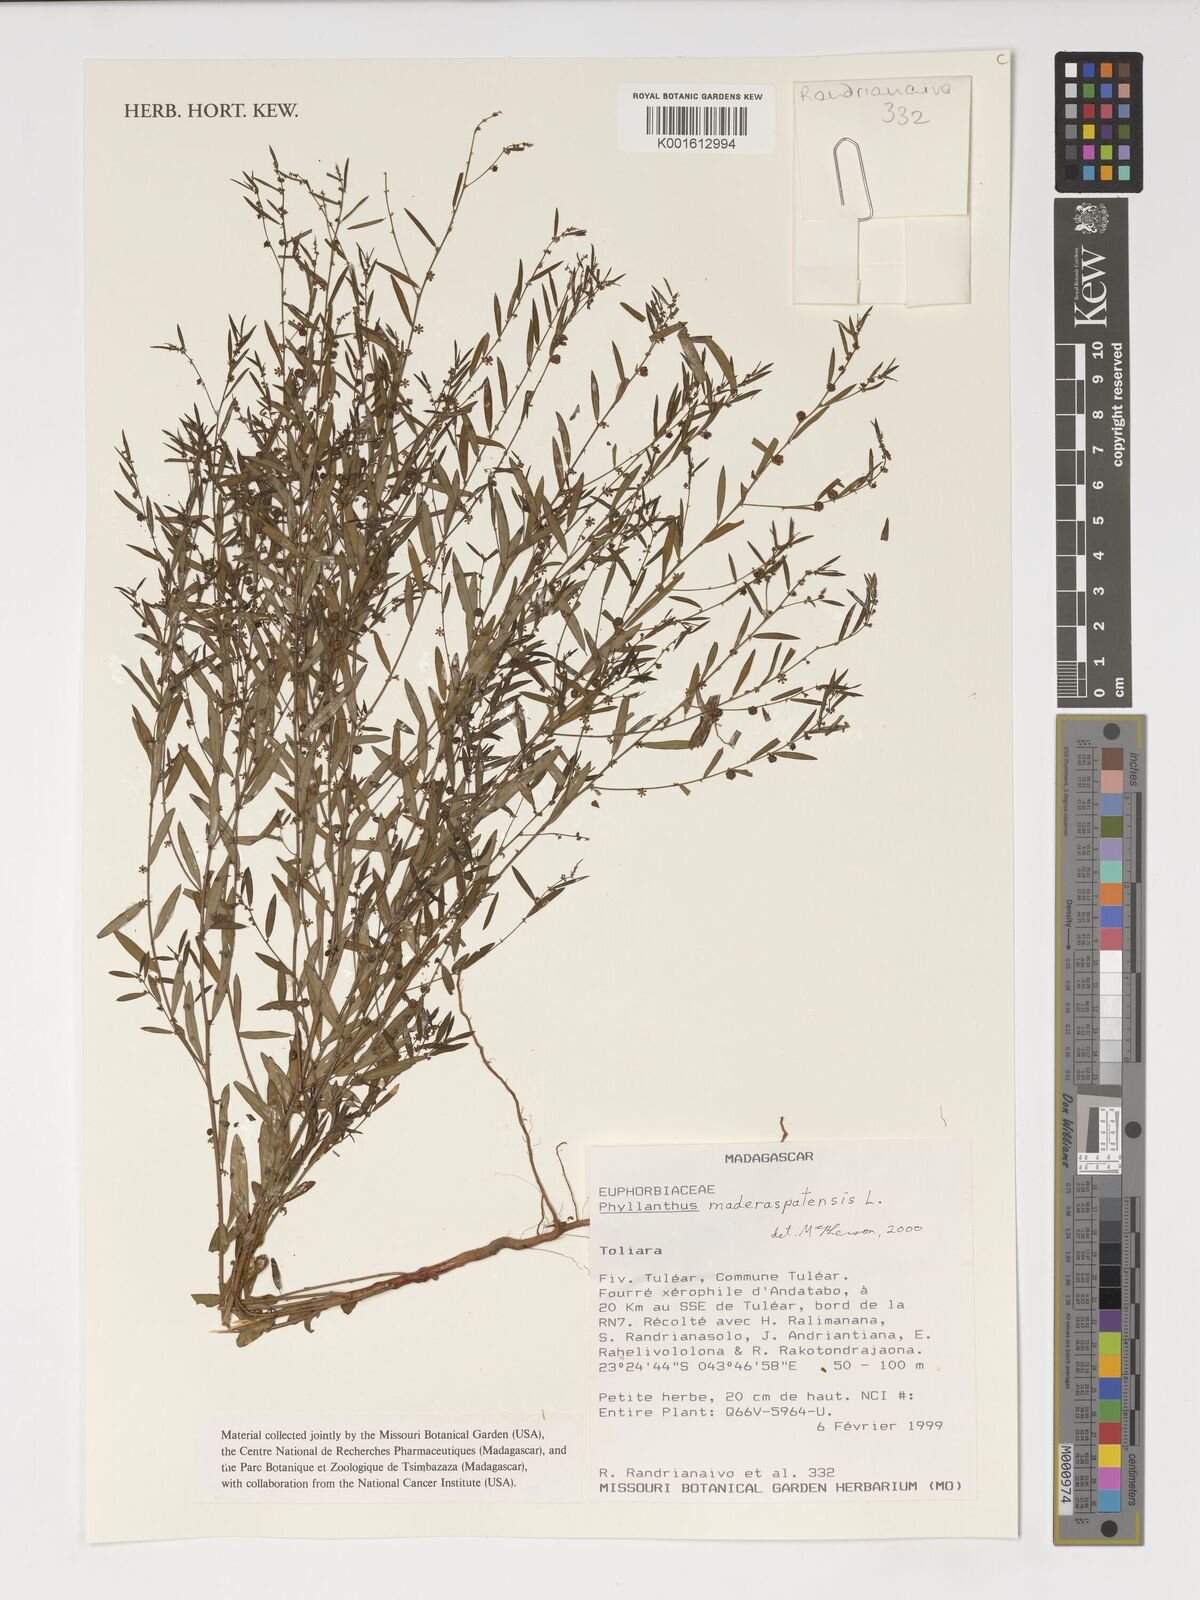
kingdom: Plantae
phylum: Tracheophyta
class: Magnoliopsida
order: Malpighiales
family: Phyllanthaceae
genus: Phyllanthus
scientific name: Phyllanthus maderaspatensis
